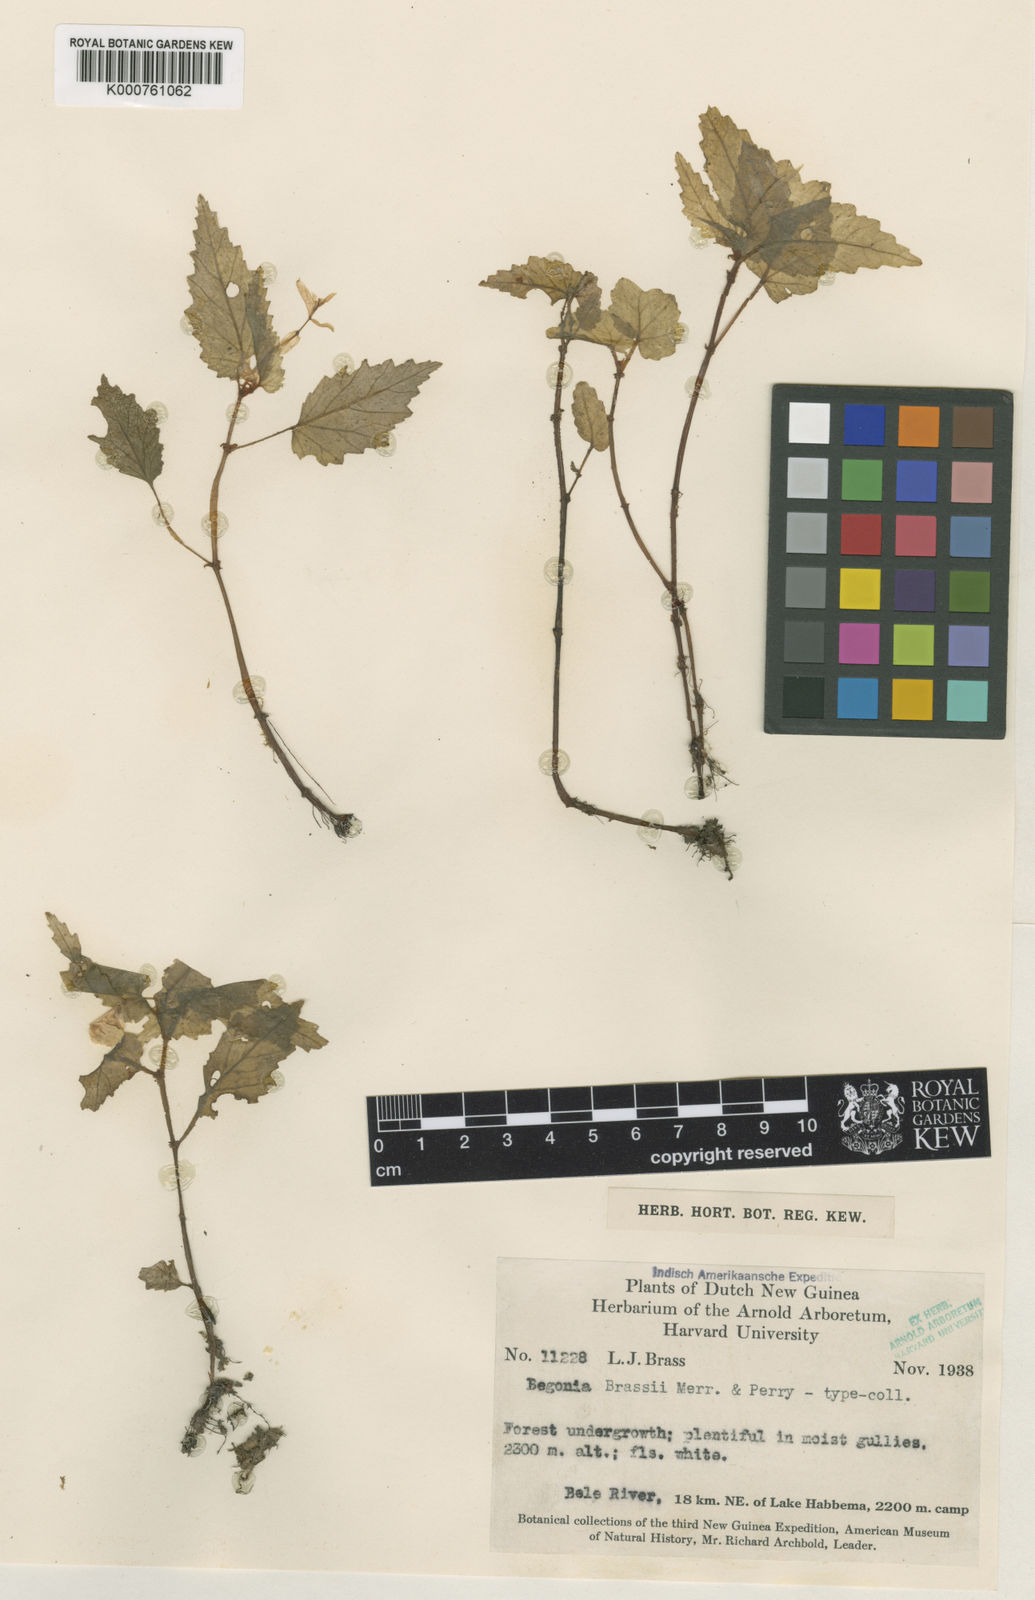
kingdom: Plantae
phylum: Tracheophyta
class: Magnoliopsida
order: Cucurbitales
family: Begoniaceae
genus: Begonia
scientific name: Begonia brassii
